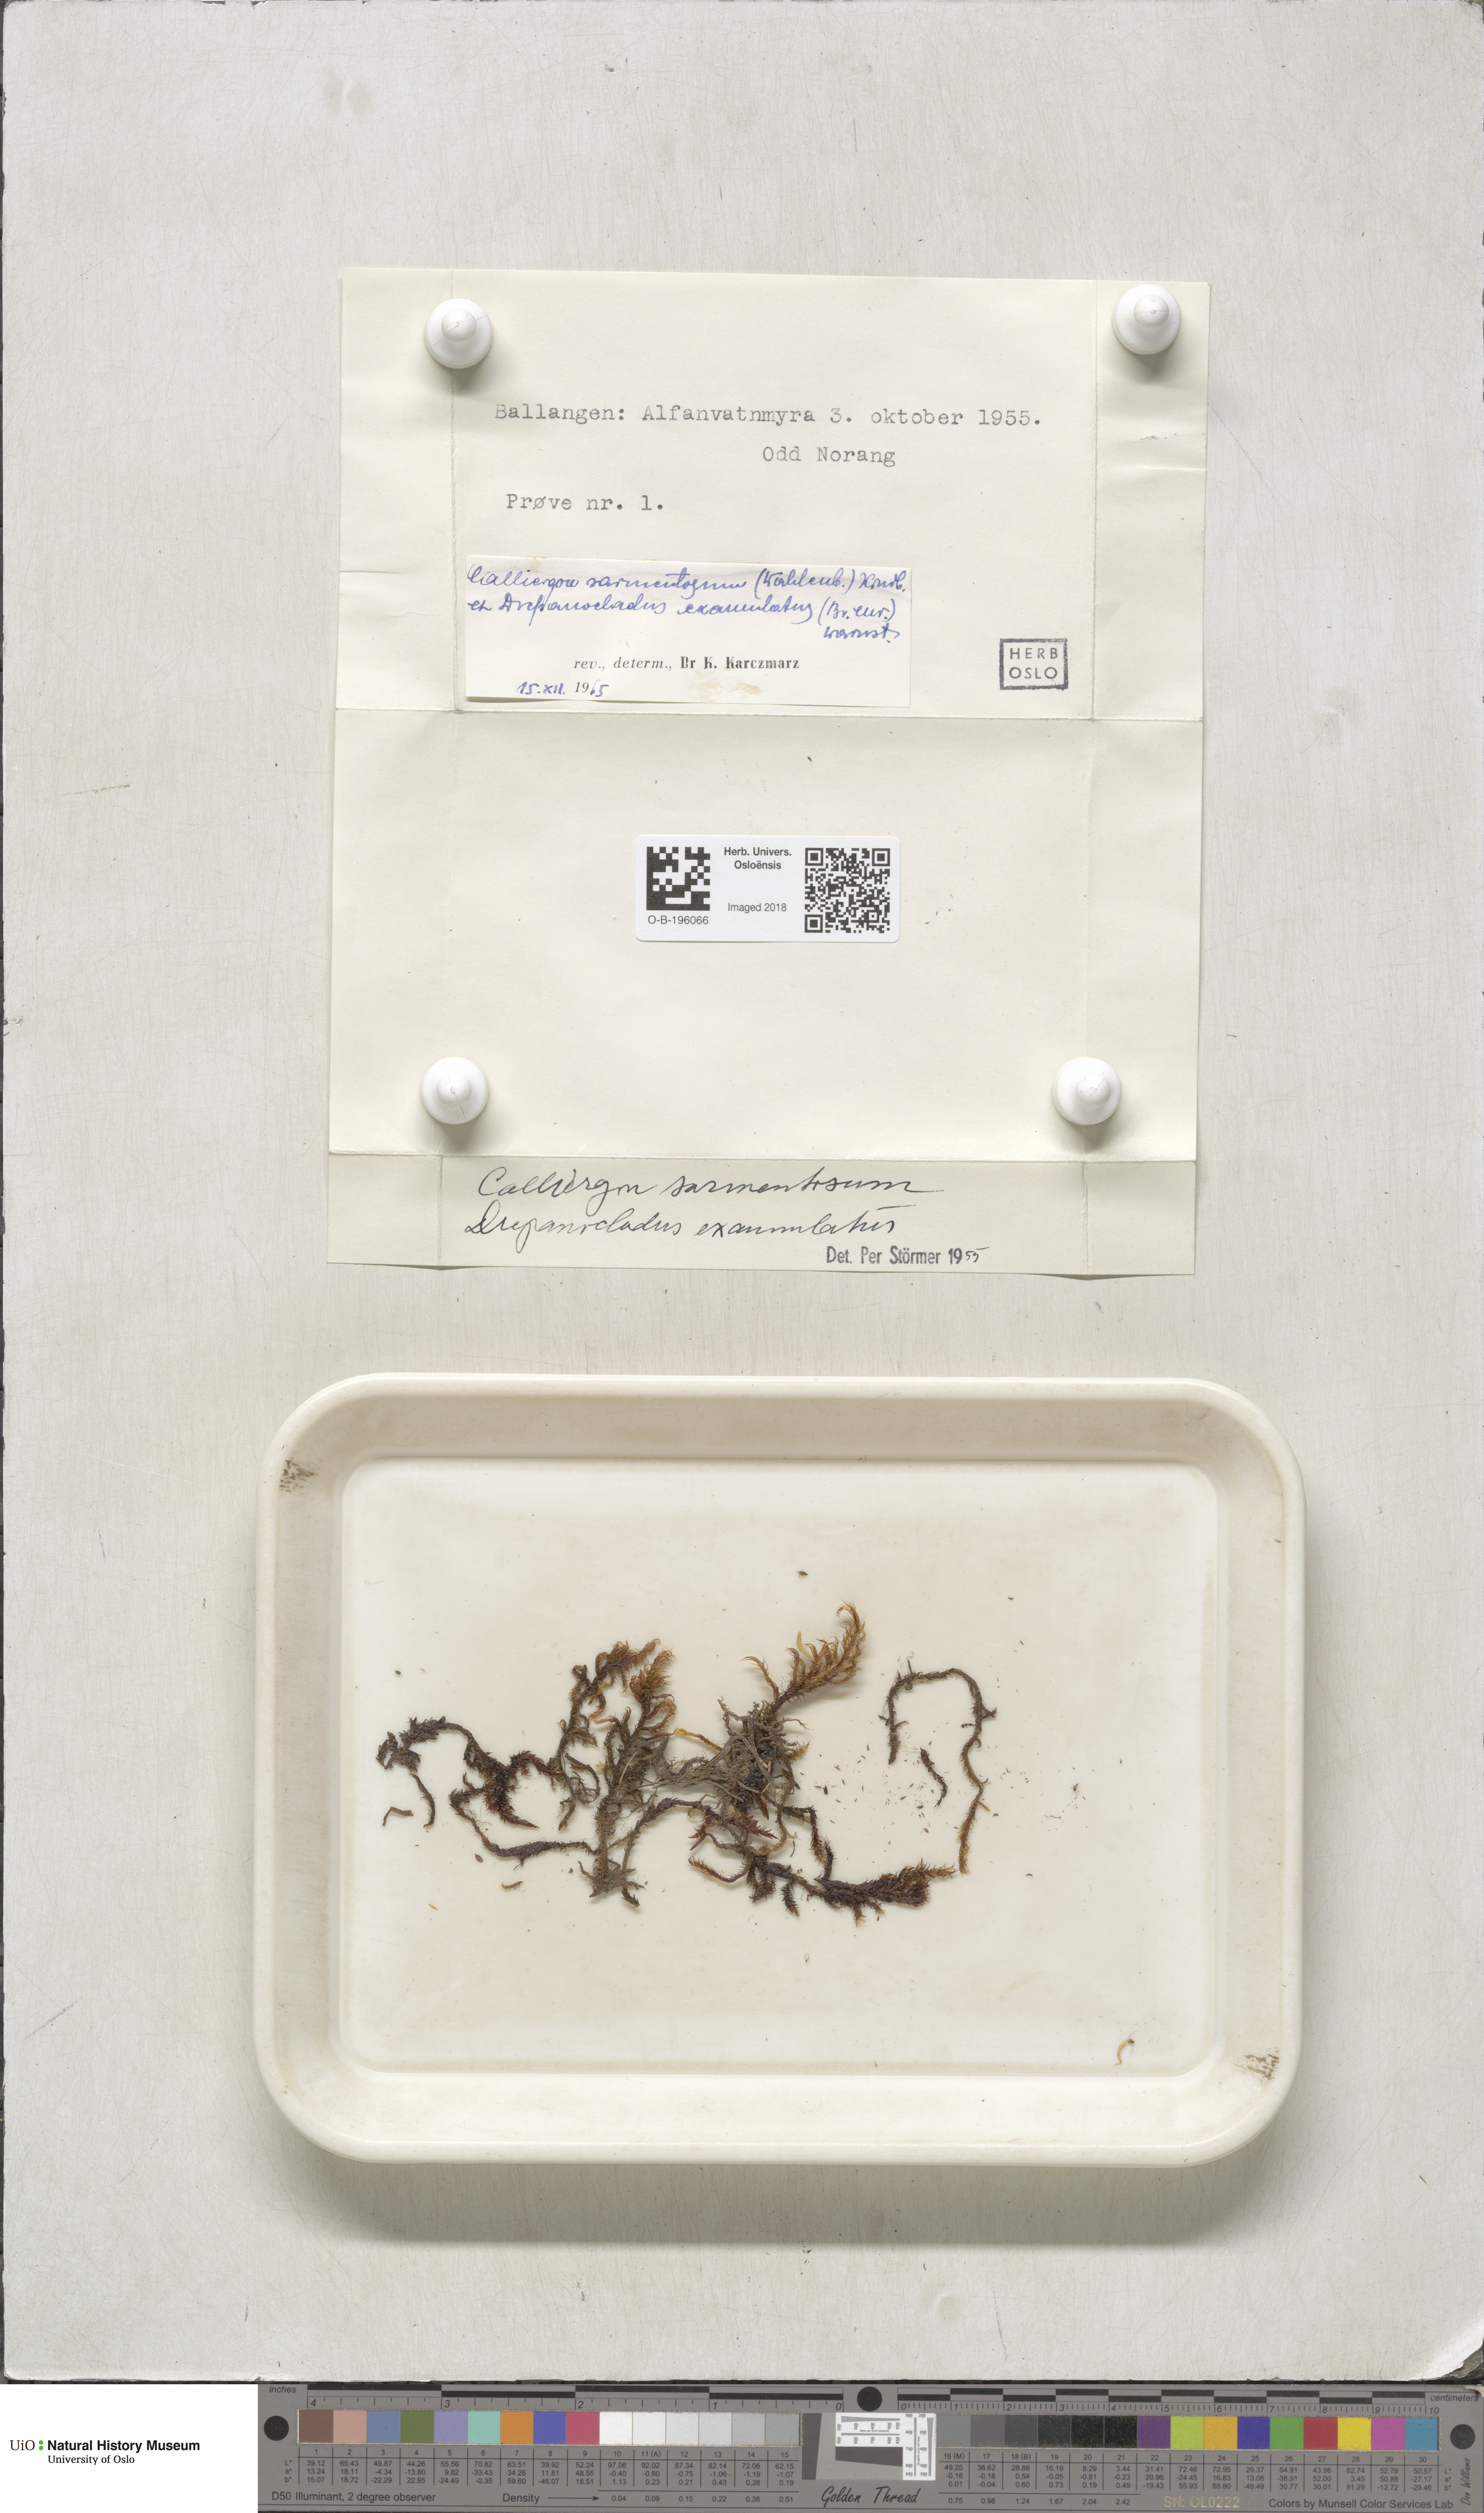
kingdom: Plantae
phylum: Bryophyta
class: Bryopsida
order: Hypnales
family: Calliergonaceae
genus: Sarmentypnum
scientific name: Sarmentypnum sarmentosum
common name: Twiggy spoon moss
